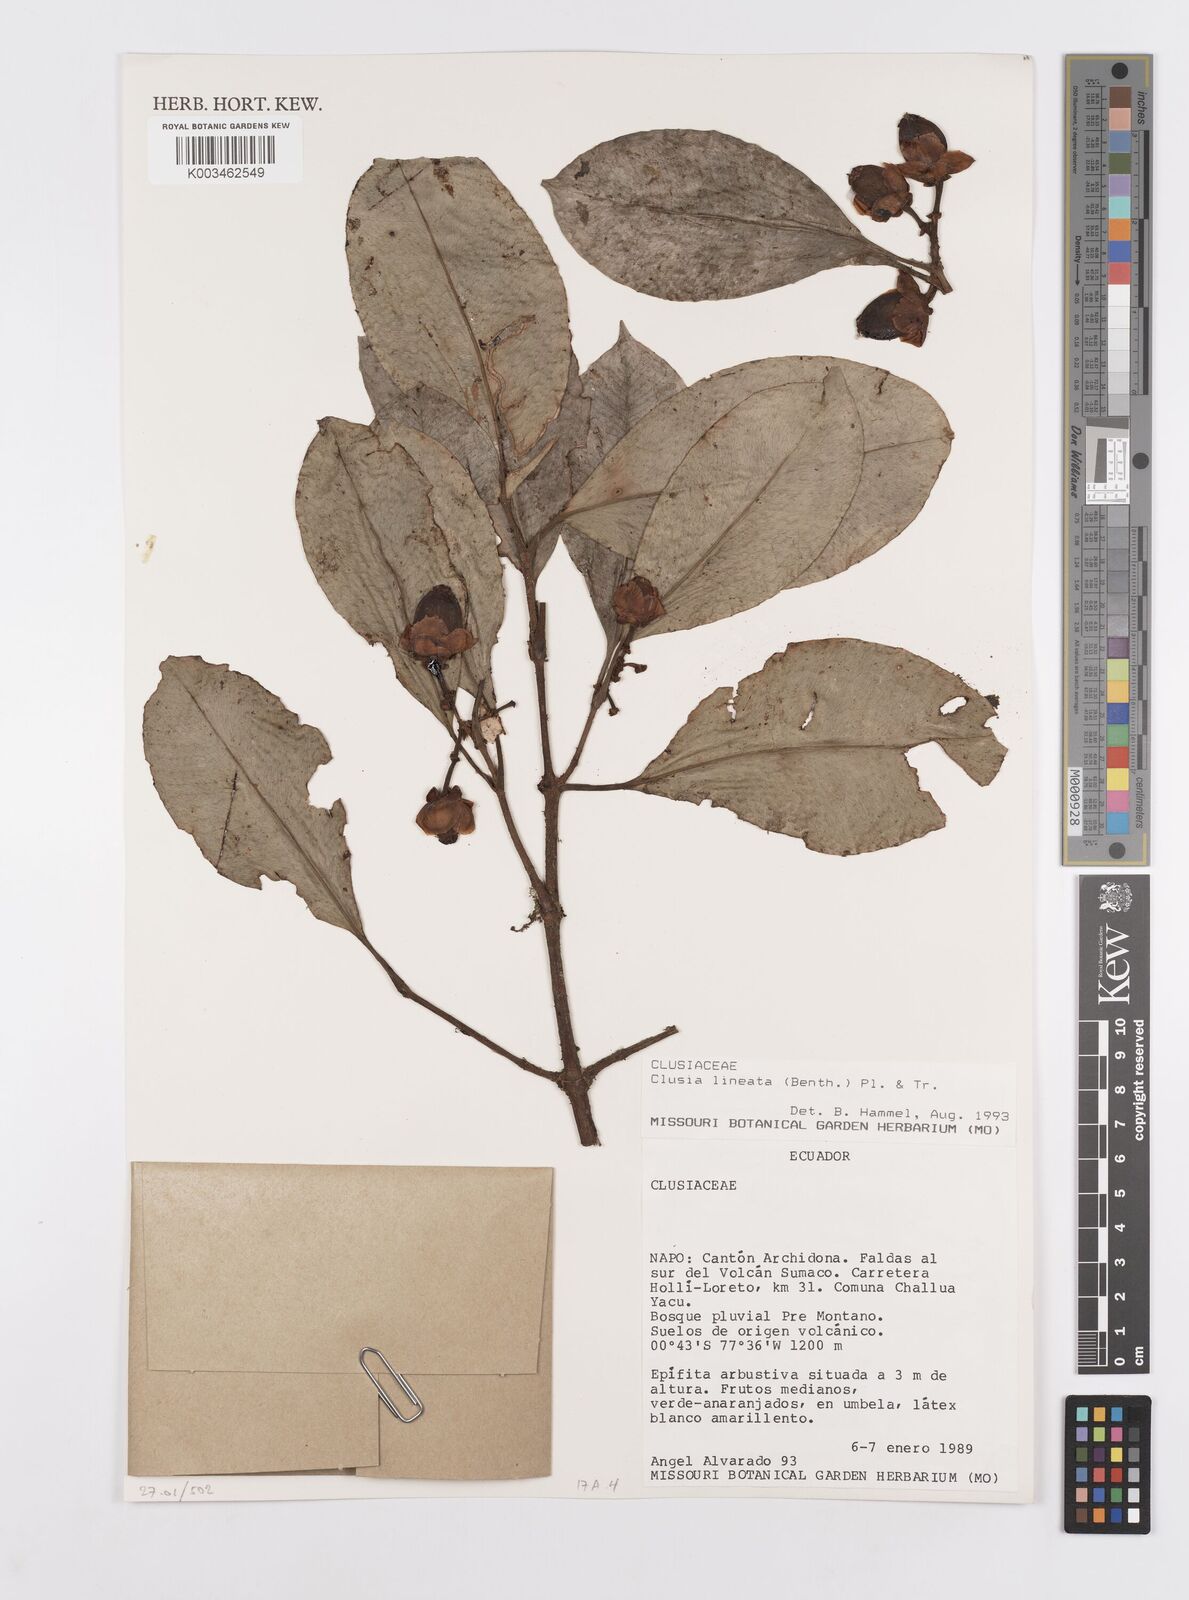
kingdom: Plantae
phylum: Tracheophyta
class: Magnoliopsida
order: Malpighiales
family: Clusiaceae
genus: Clusia
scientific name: Clusia lineata
